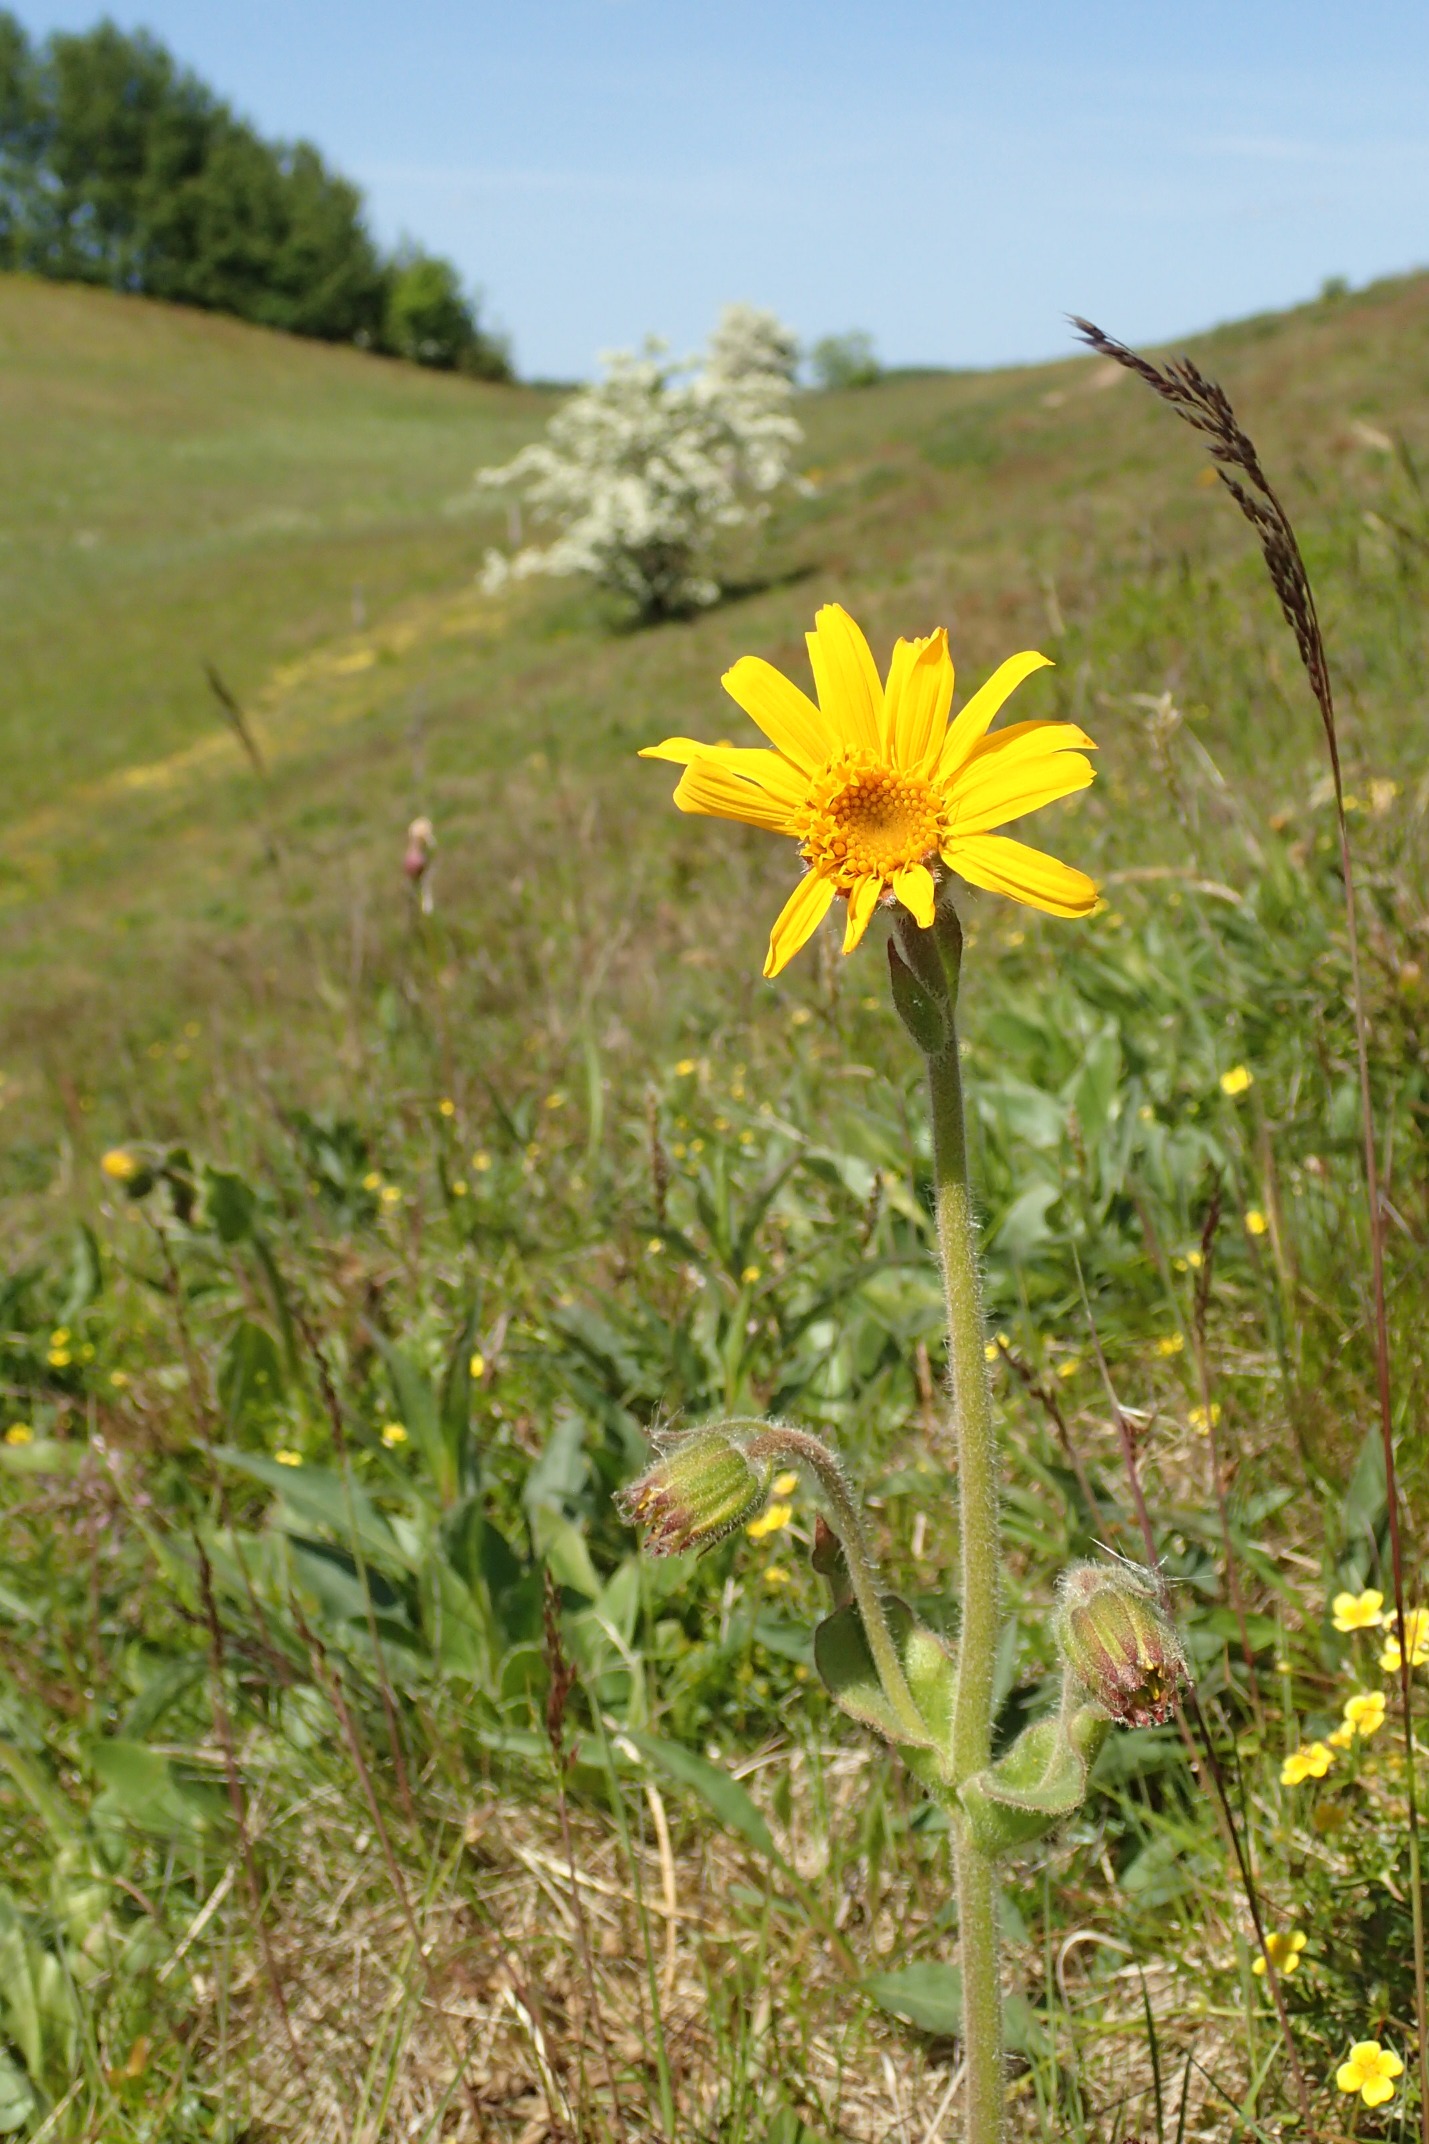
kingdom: Plantae
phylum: Tracheophyta
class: Magnoliopsida
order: Asterales
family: Asteraceae
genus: Arnica
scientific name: Arnica montana
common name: Guldblomme
